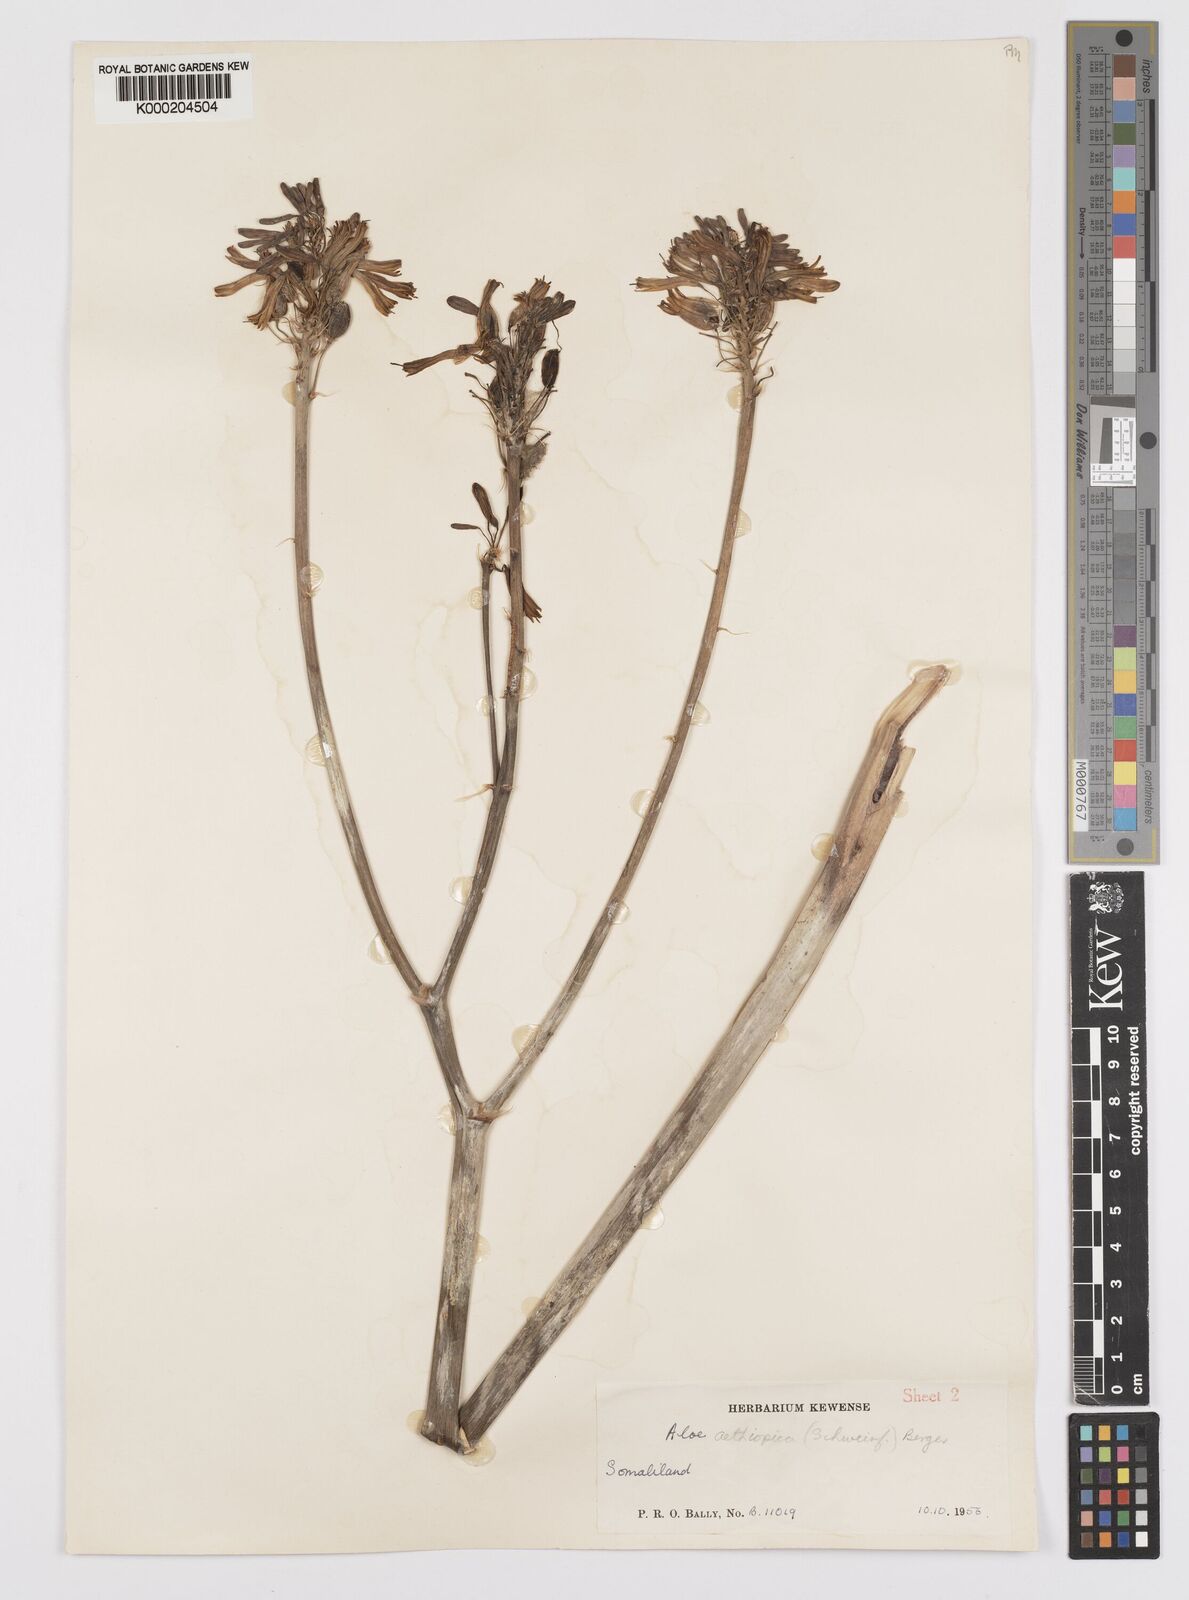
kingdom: Plantae
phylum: Tracheophyta
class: Liliopsida
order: Asparagales
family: Asphodelaceae
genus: Aloe
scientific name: Aloe scobinifolia
